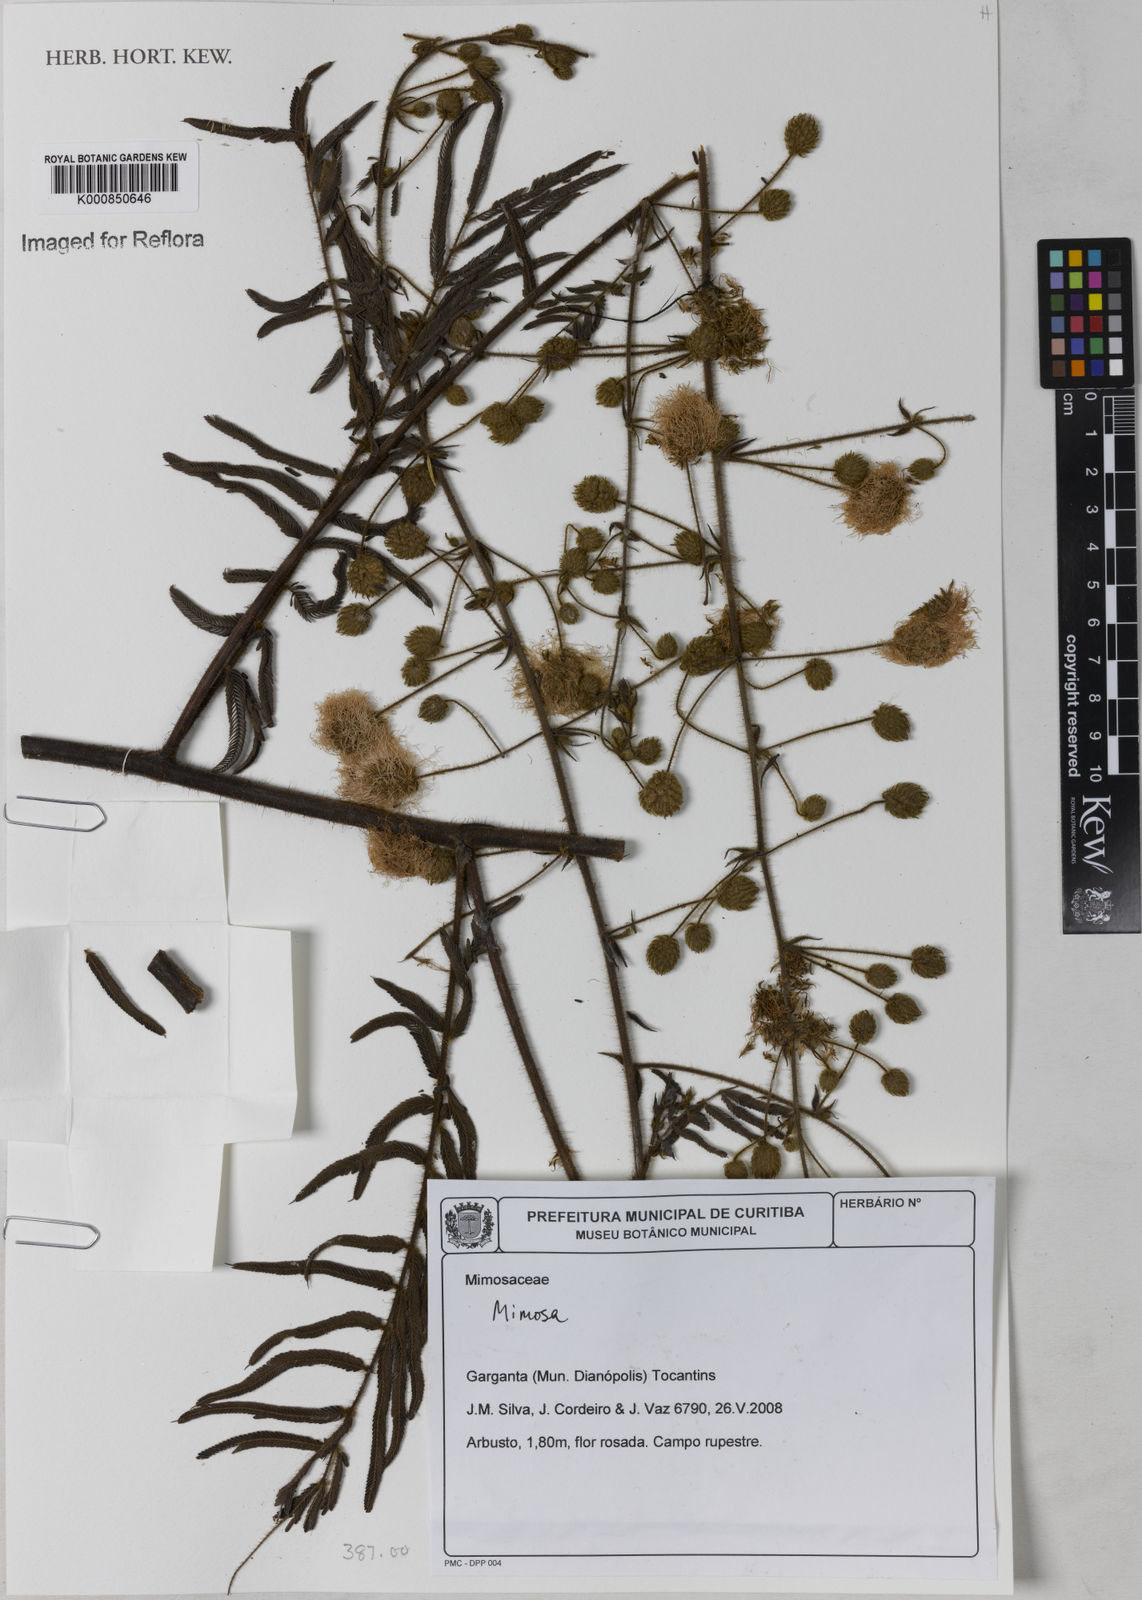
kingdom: Plantae
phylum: Tracheophyta
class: Magnoliopsida
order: Fabales
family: Fabaceae
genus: Mimosa
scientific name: Mimosa melanocarpa
